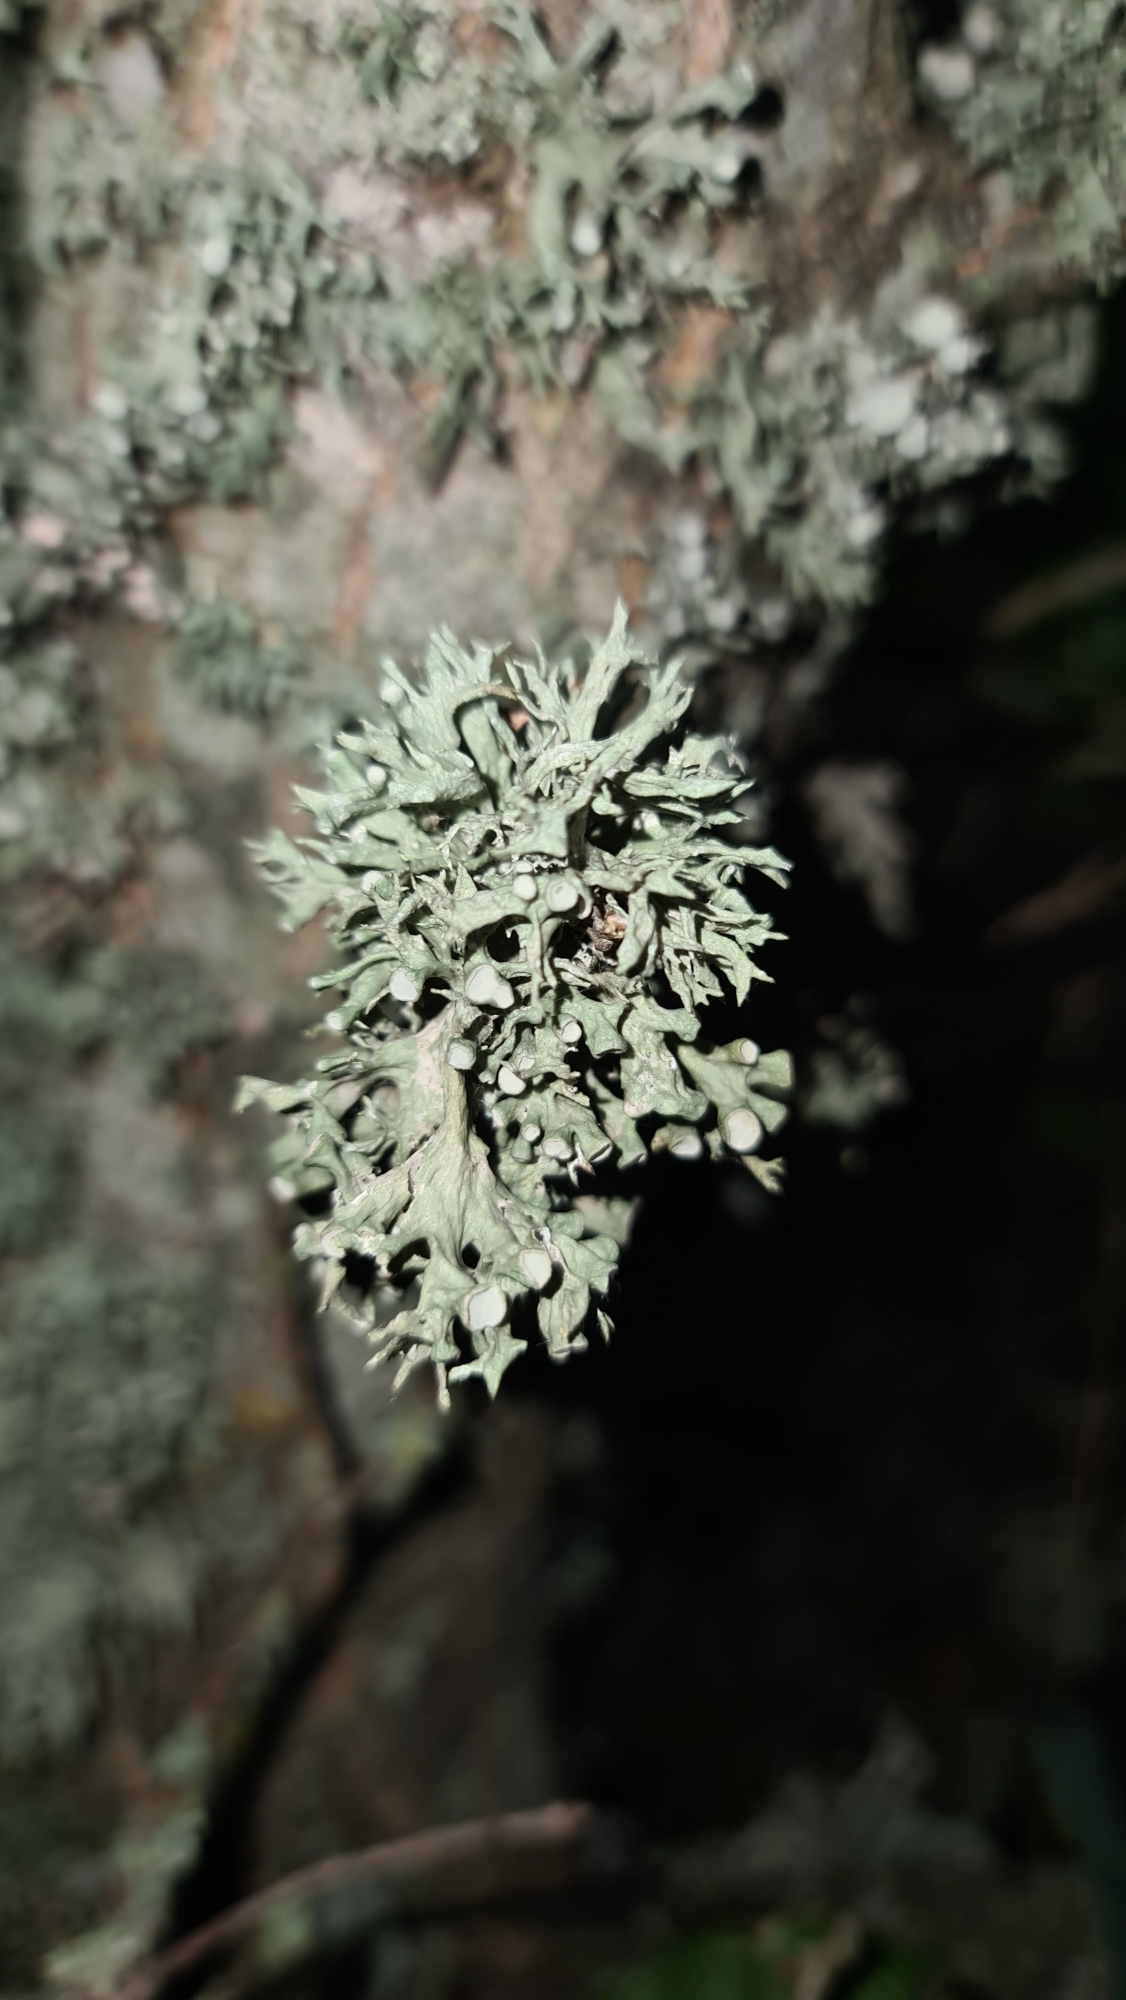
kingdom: Fungi
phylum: Ascomycota
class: Lecanoromycetes
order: Lecanorales
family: Ramalinaceae
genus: Ramalina
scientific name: Ramalina fastigiata
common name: Tue-grenlav
